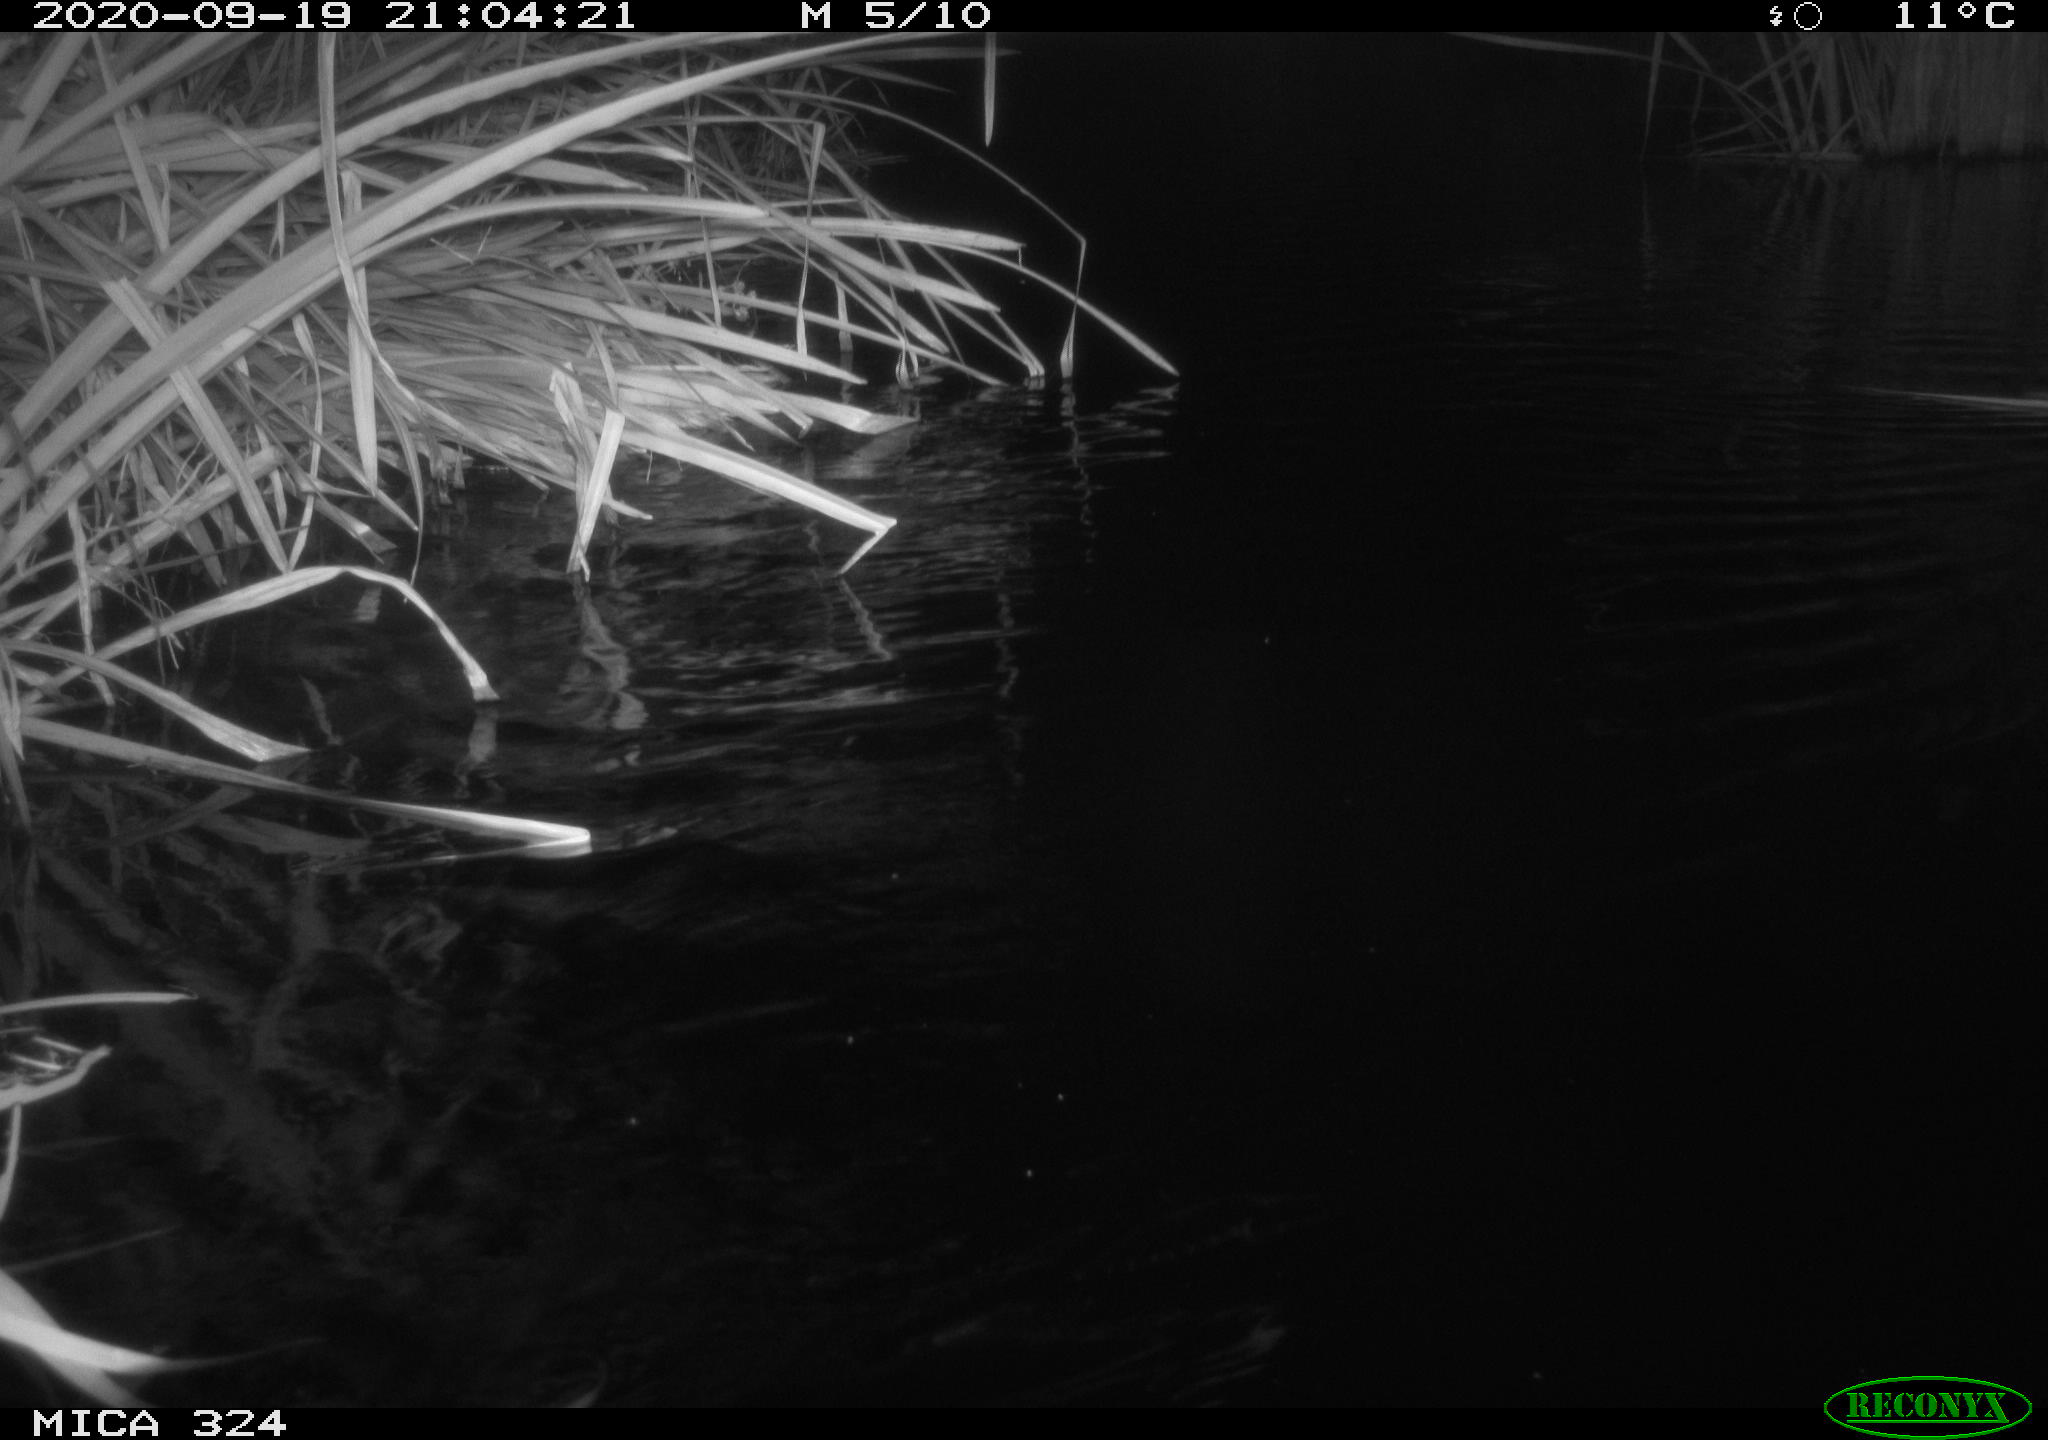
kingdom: Animalia
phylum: Chordata
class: Mammalia
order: Rodentia
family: Cricetidae
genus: Ondatra
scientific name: Ondatra zibethicus
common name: Muskrat
